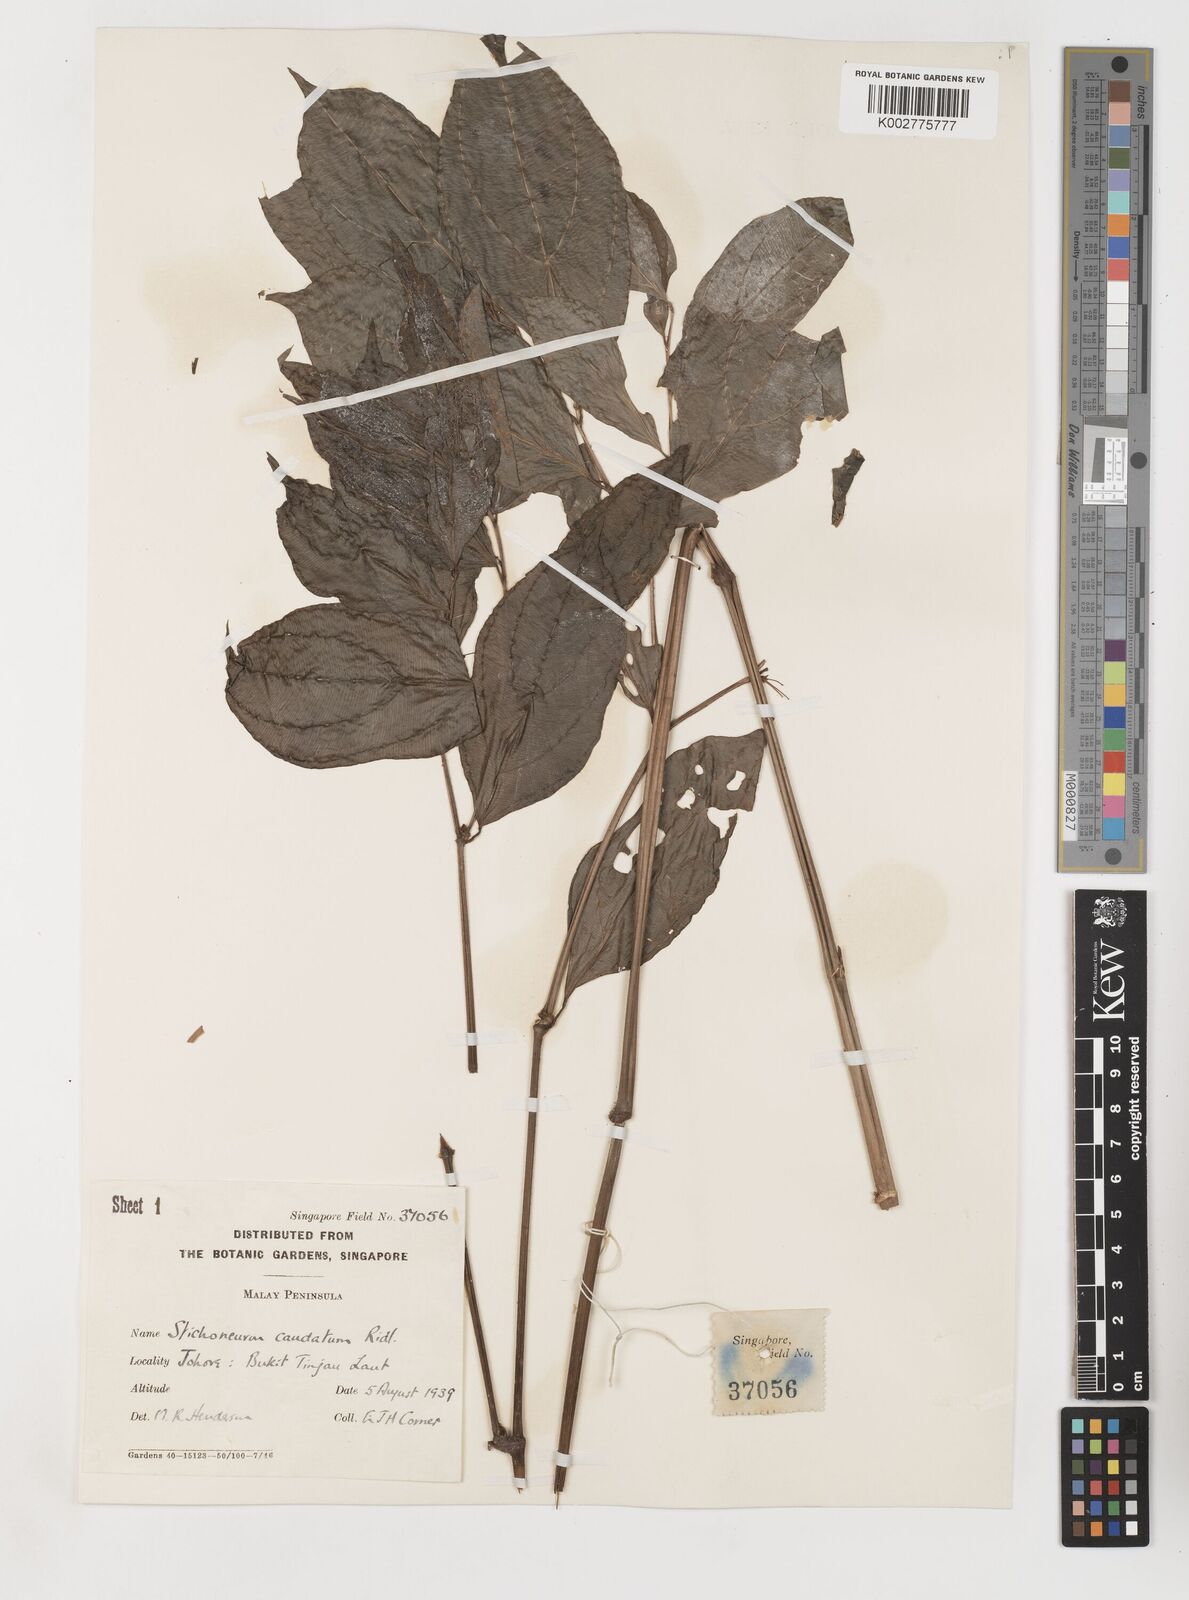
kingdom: Plantae
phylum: Tracheophyta
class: Liliopsida
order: Pandanales
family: Stemonaceae
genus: Stichoneuron
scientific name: Stichoneuron caudatum
